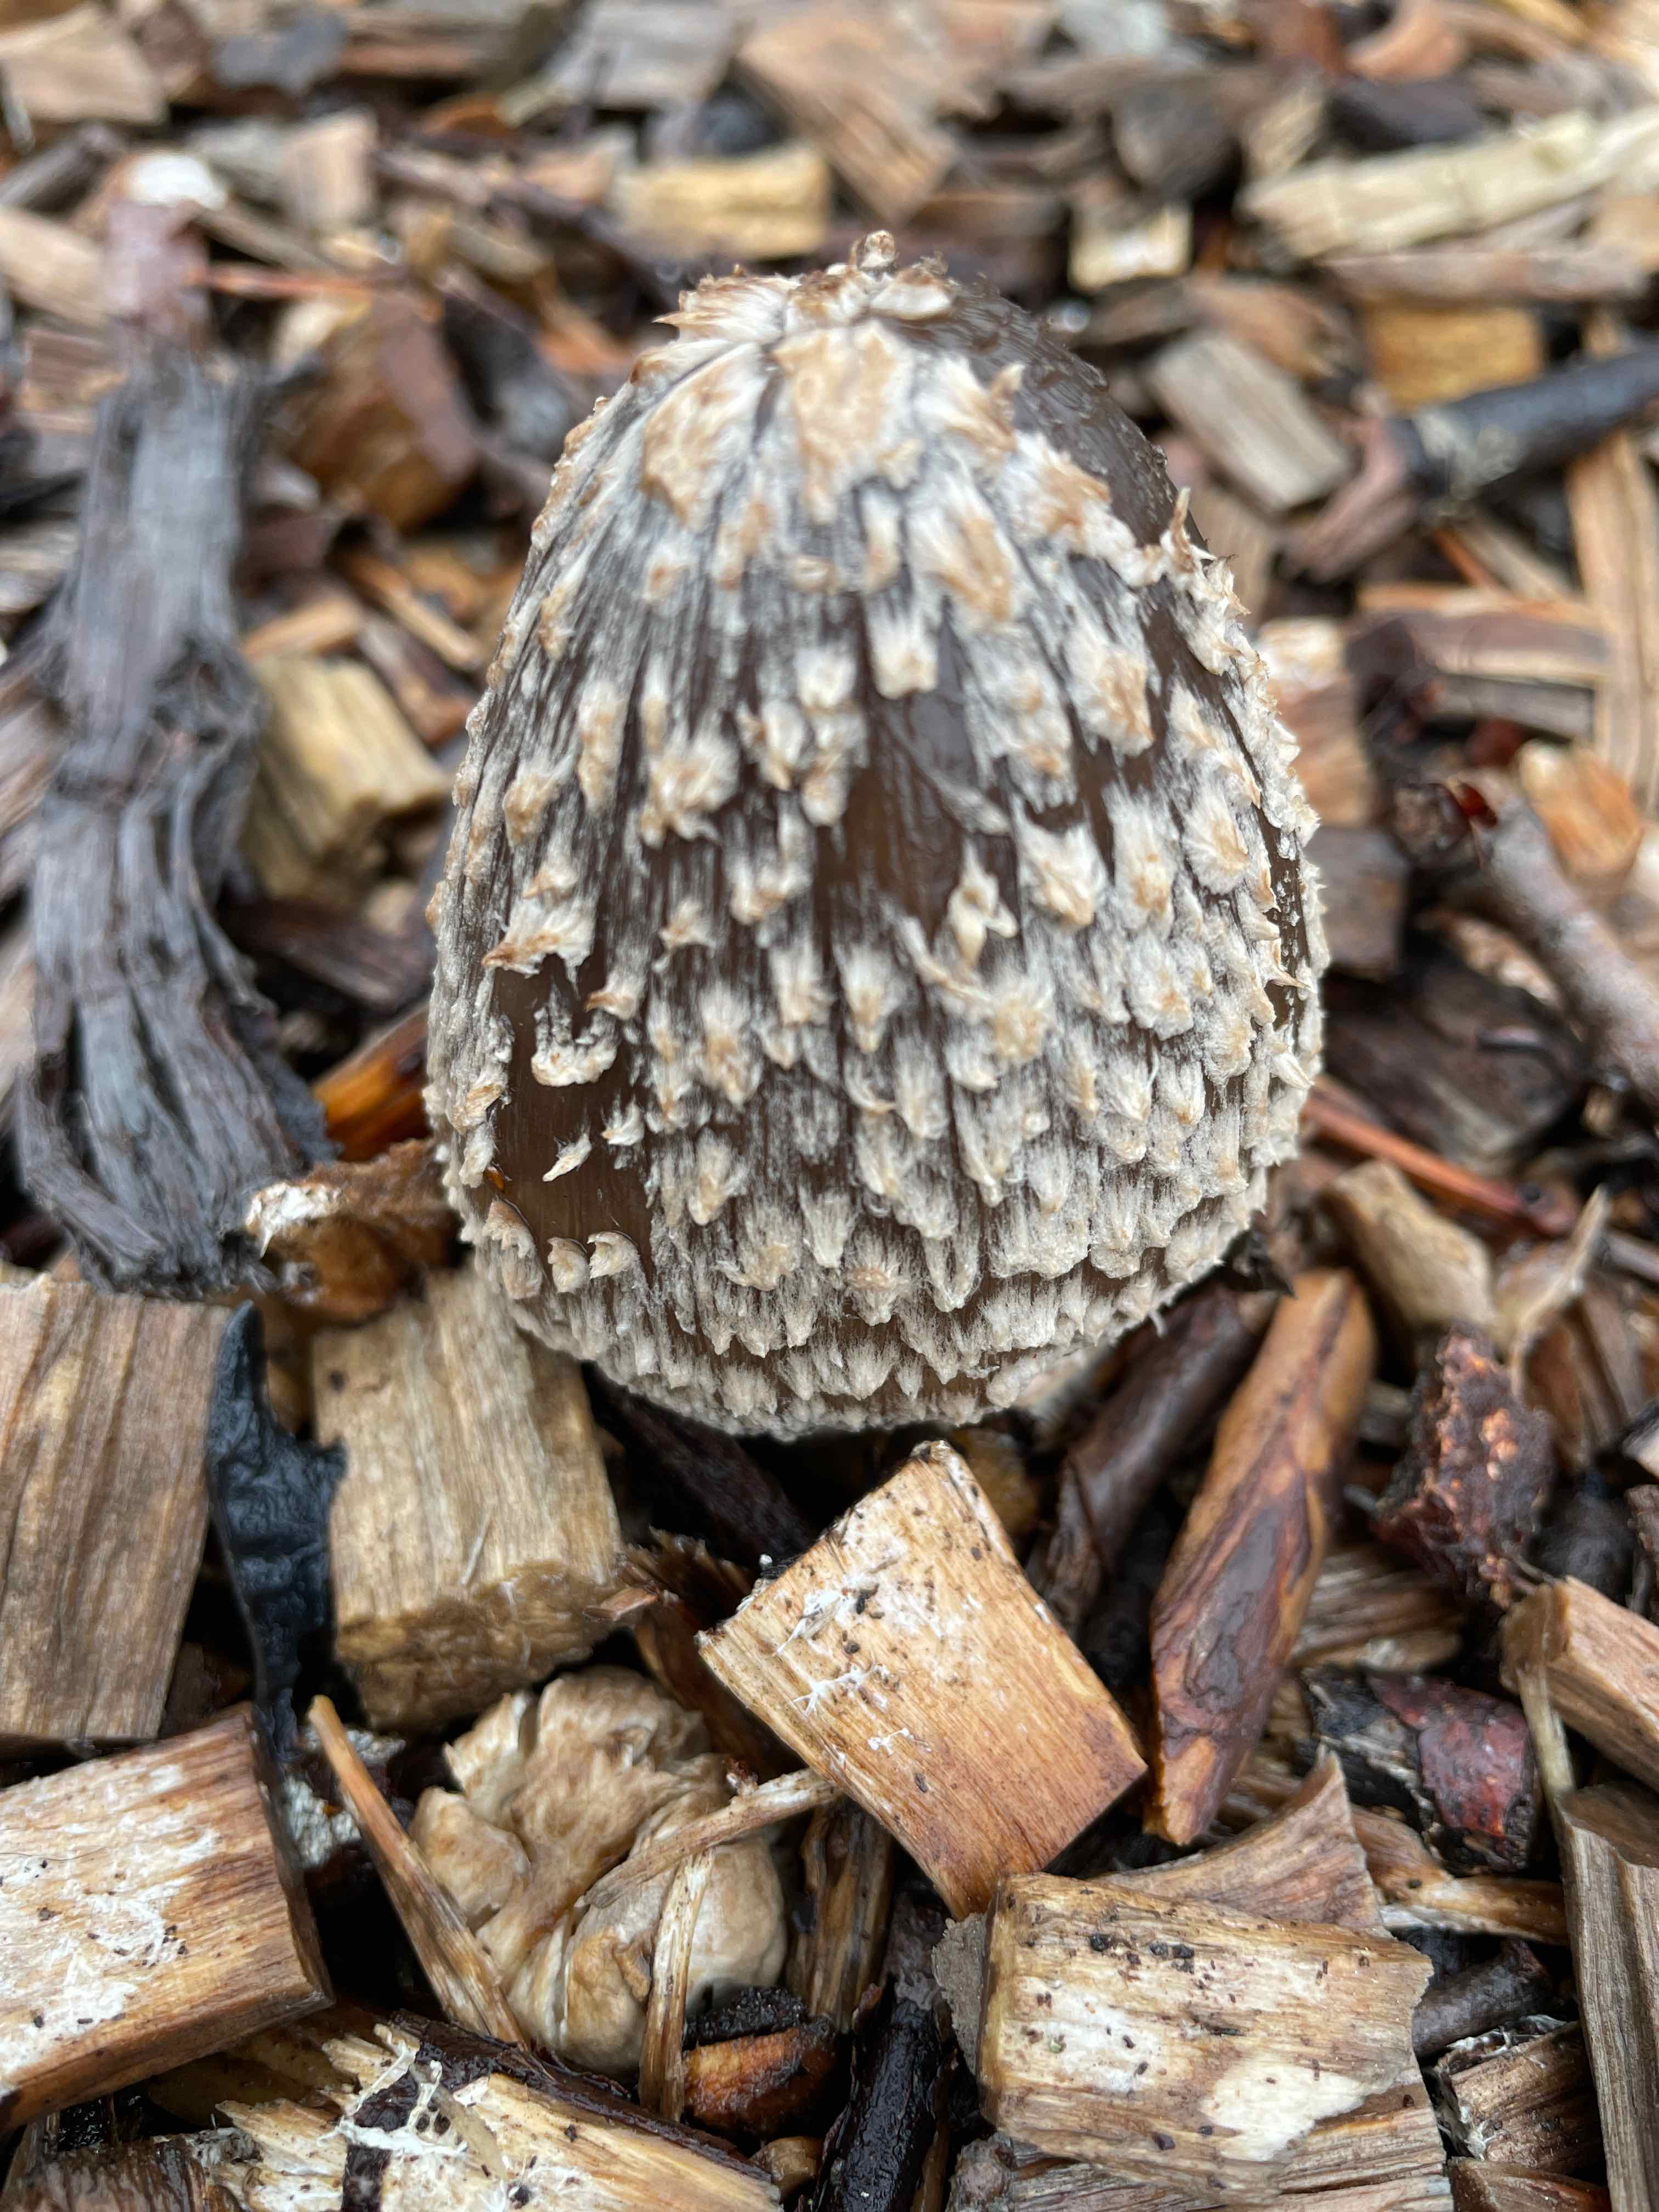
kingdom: Fungi
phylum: Basidiomycota
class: Agaricomycetes
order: Agaricales
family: Psathyrellaceae
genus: Coprinopsis
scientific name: Coprinopsis picacea
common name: skade-blækhat
